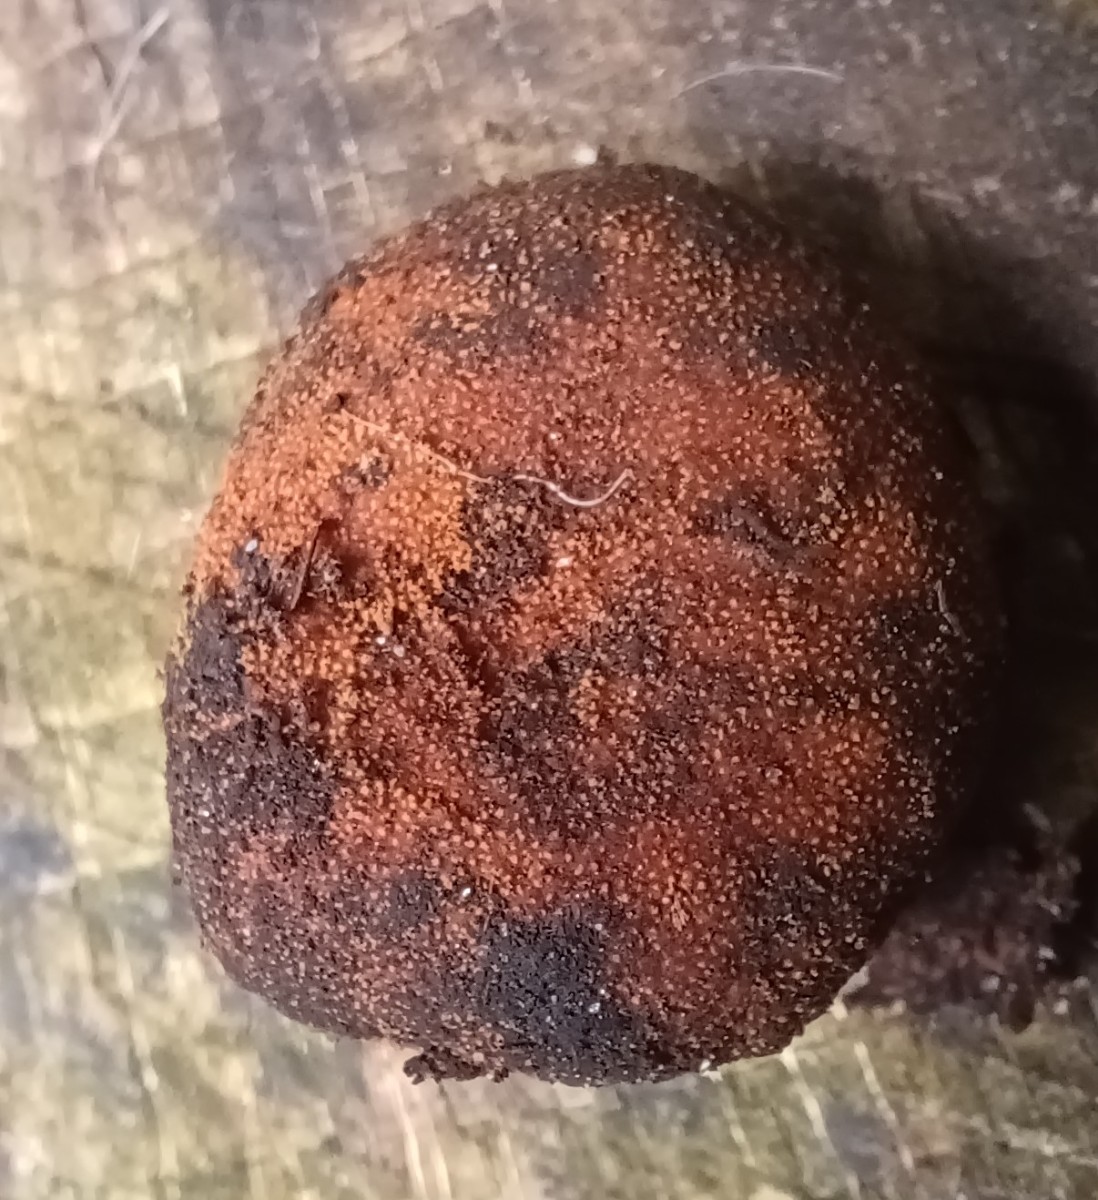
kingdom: Fungi
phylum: Ascomycota
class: Eurotiomycetes
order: Eurotiales
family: Elaphomycetaceae
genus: Elaphomyces
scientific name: Elaphomyces granulatus
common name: grynet hjortetrøffel
